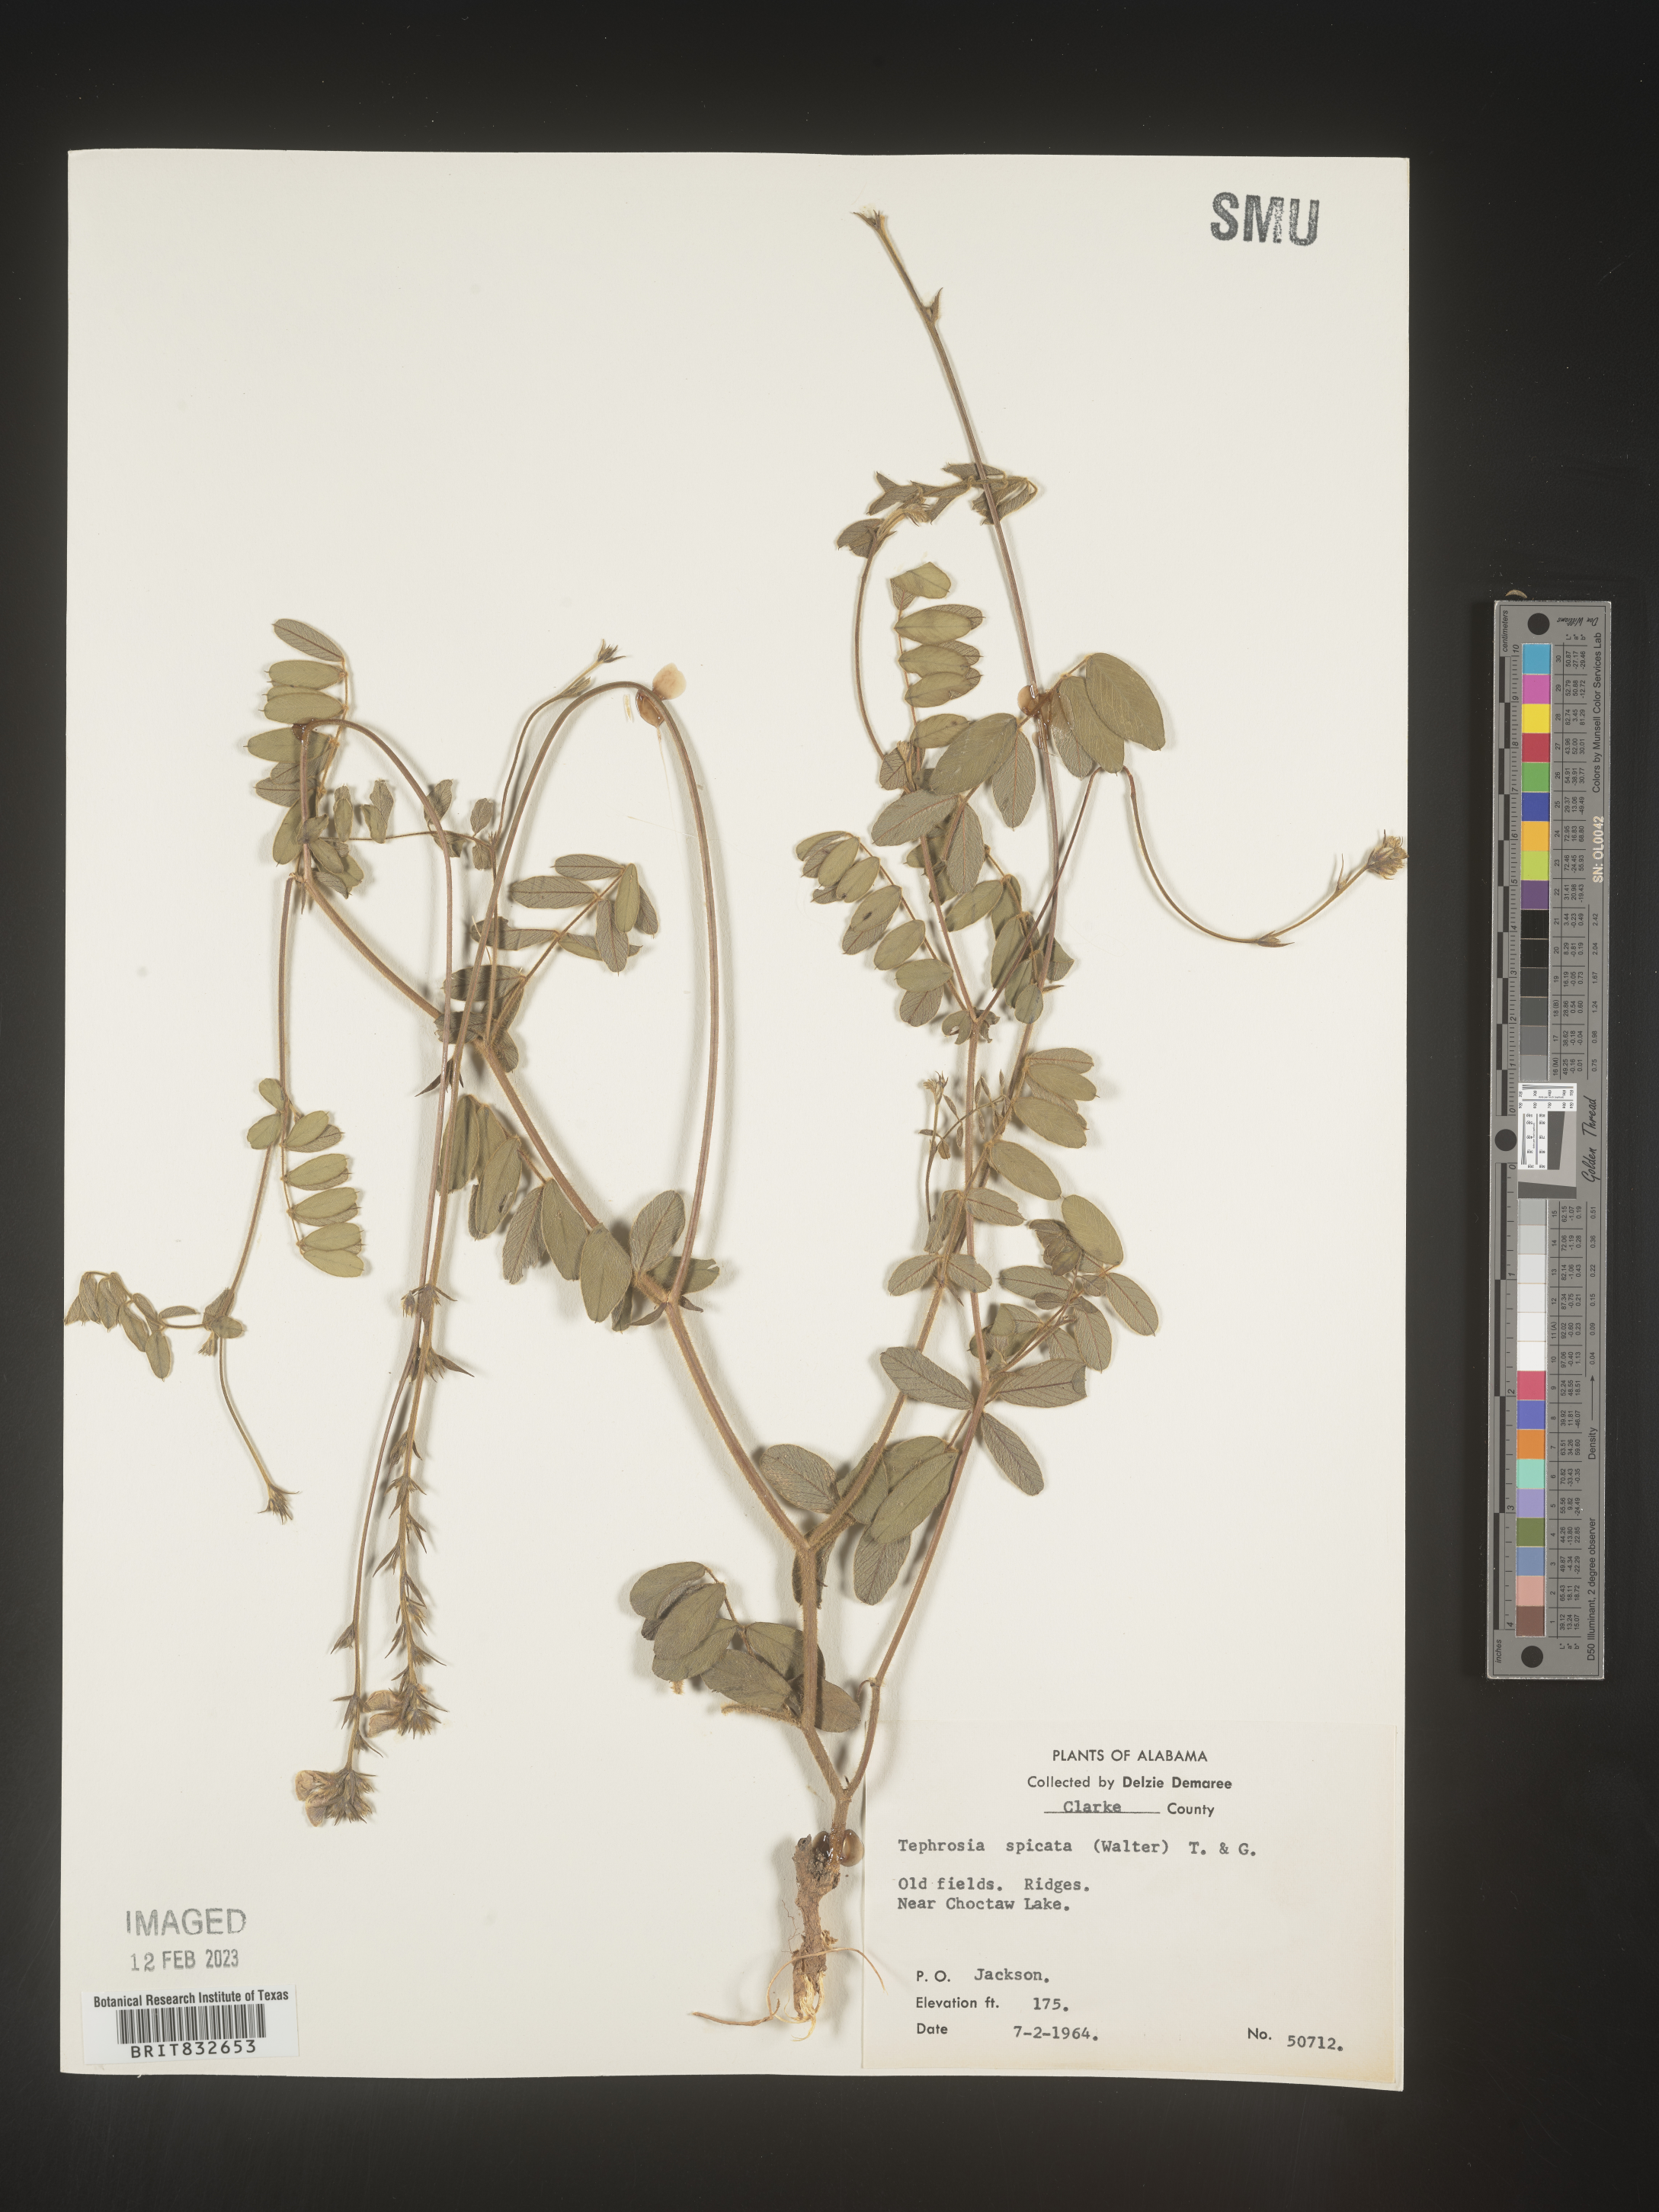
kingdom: Plantae
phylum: Tracheophyta
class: Magnoliopsida
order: Fabales
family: Fabaceae
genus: Tephrosia
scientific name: Tephrosia spicata
